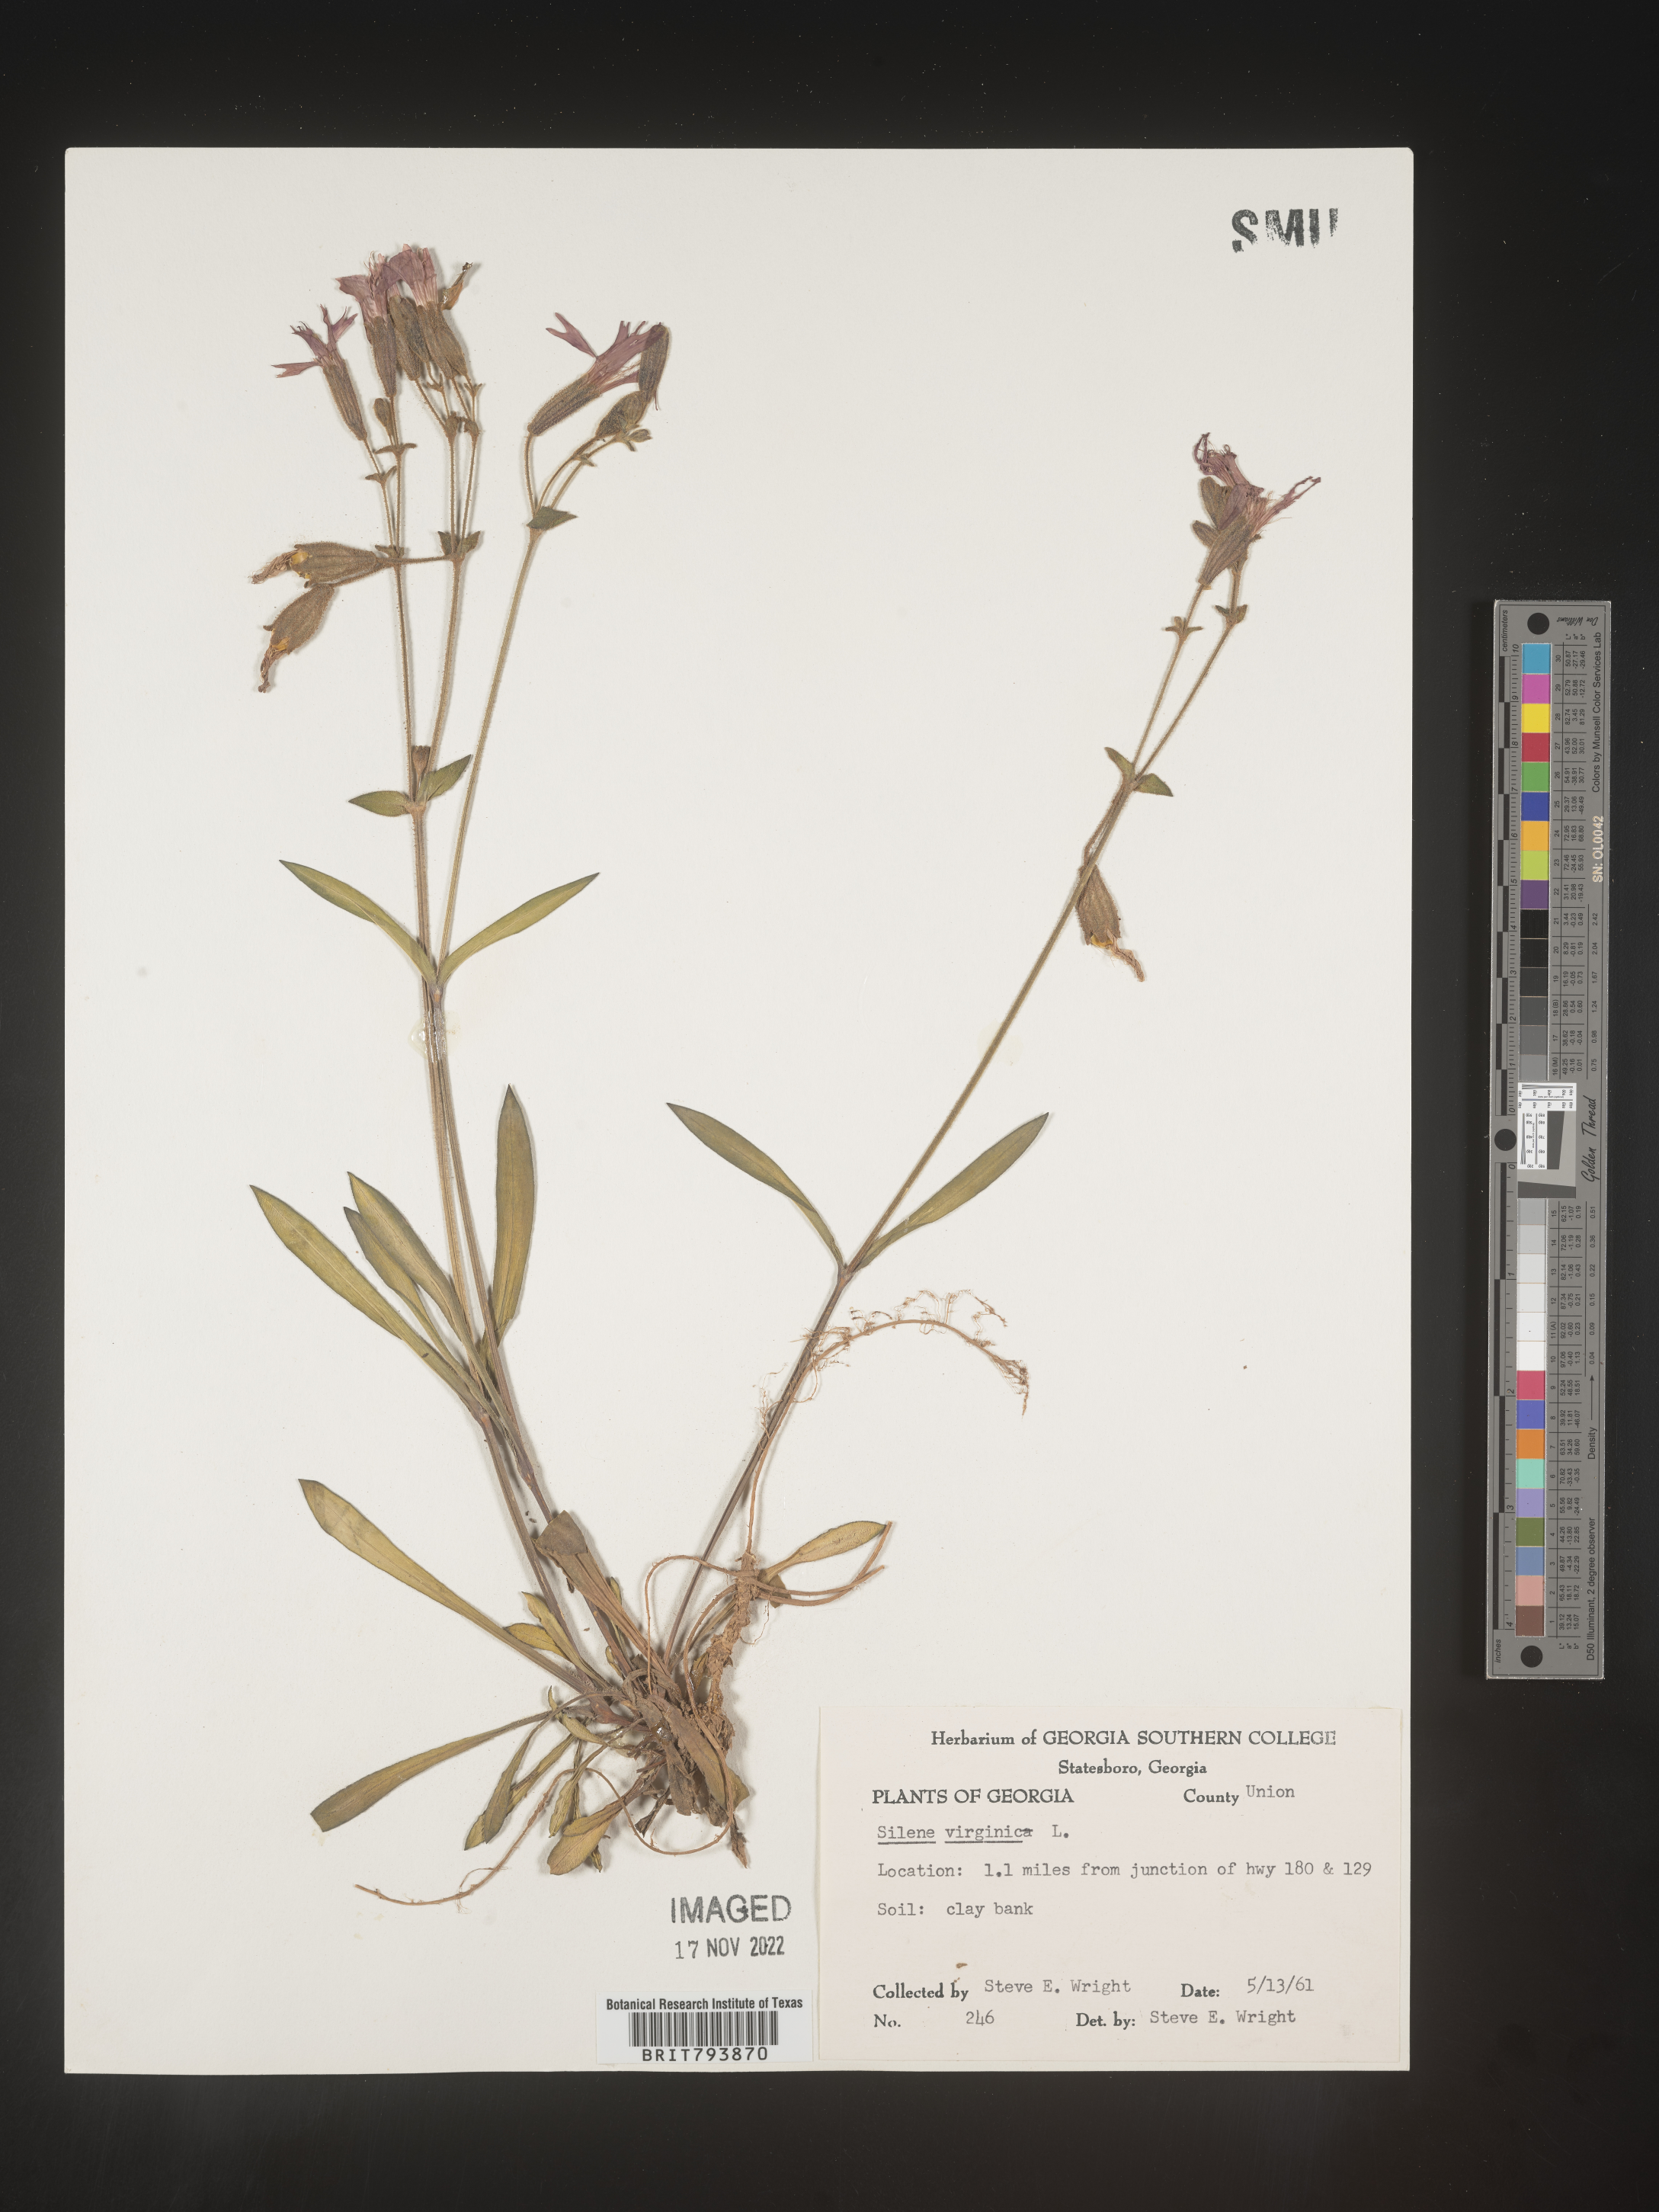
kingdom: Plantae
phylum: Tracheophyta
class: Magnoliopsida
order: Caryophyllales
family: Caryophyllaceae
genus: Silene
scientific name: Silene virginica
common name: Fire-pink
